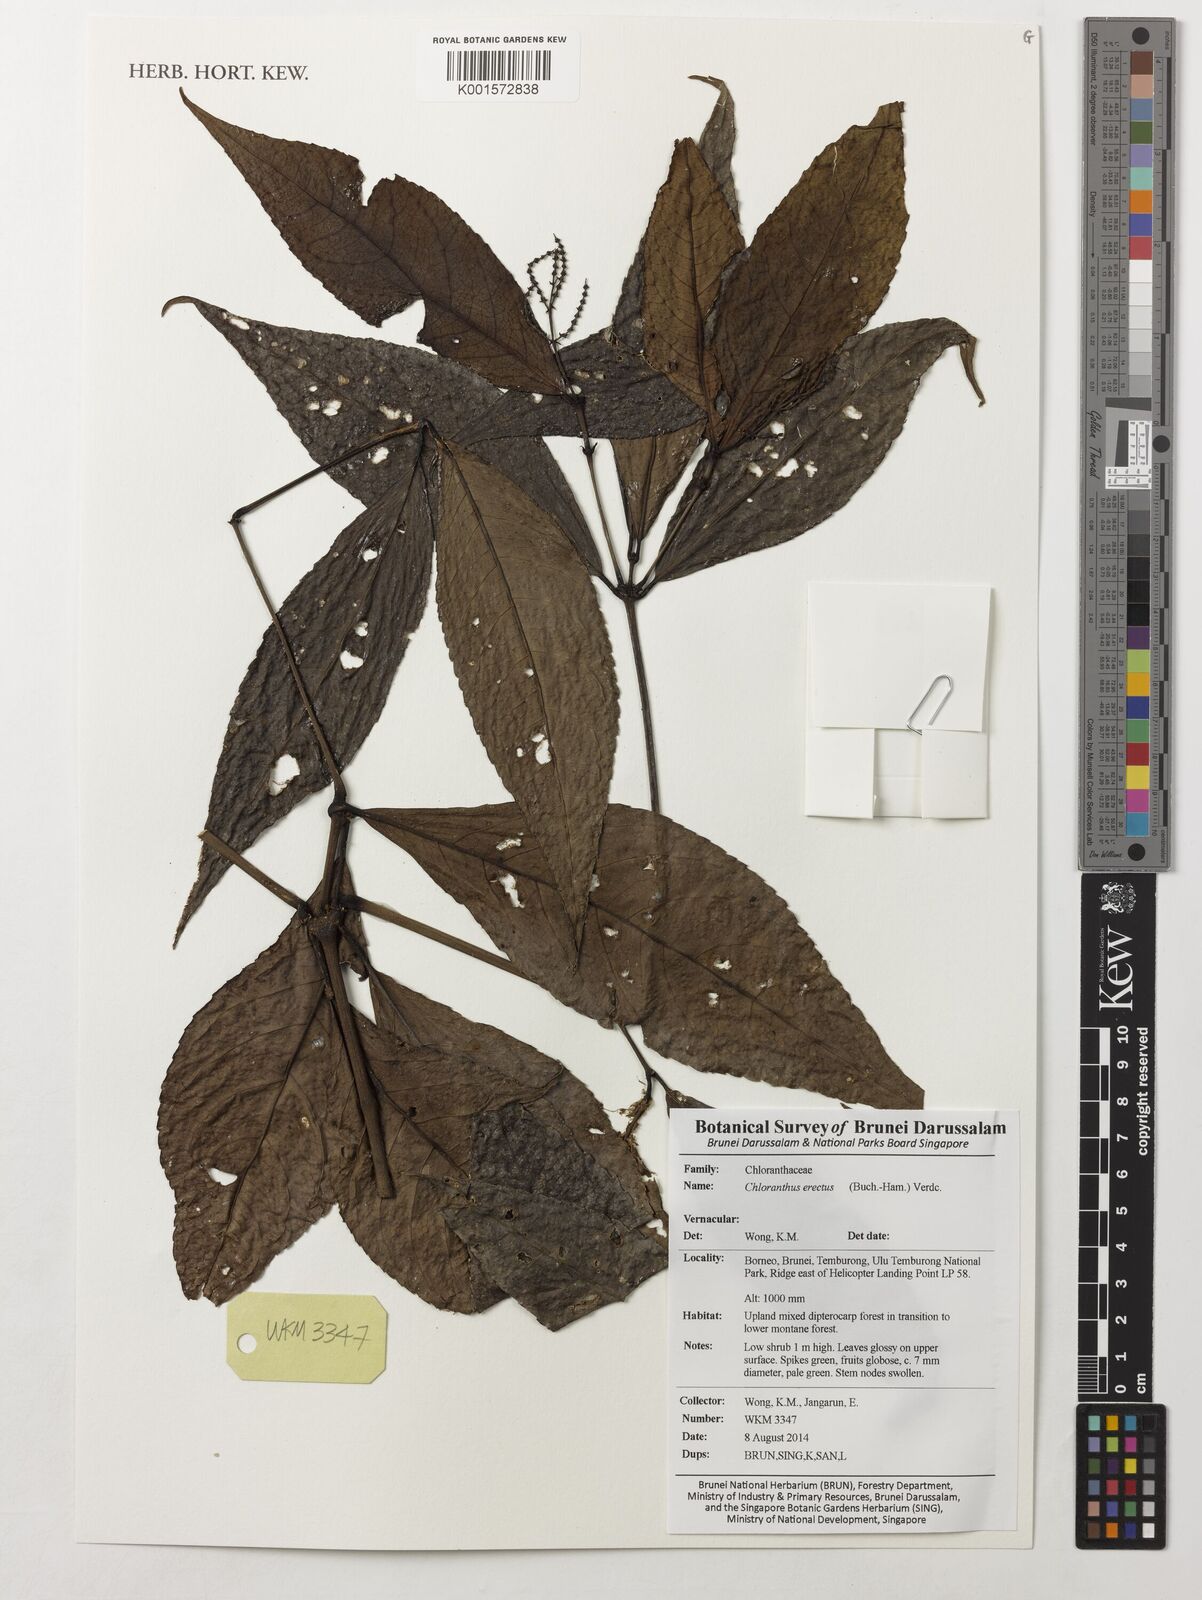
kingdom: Plantae
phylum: Tracheophyta
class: Magnoliopsida
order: Chloranthales
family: Chloranthaceae
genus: Chloranthus
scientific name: Chloranthus elatior
